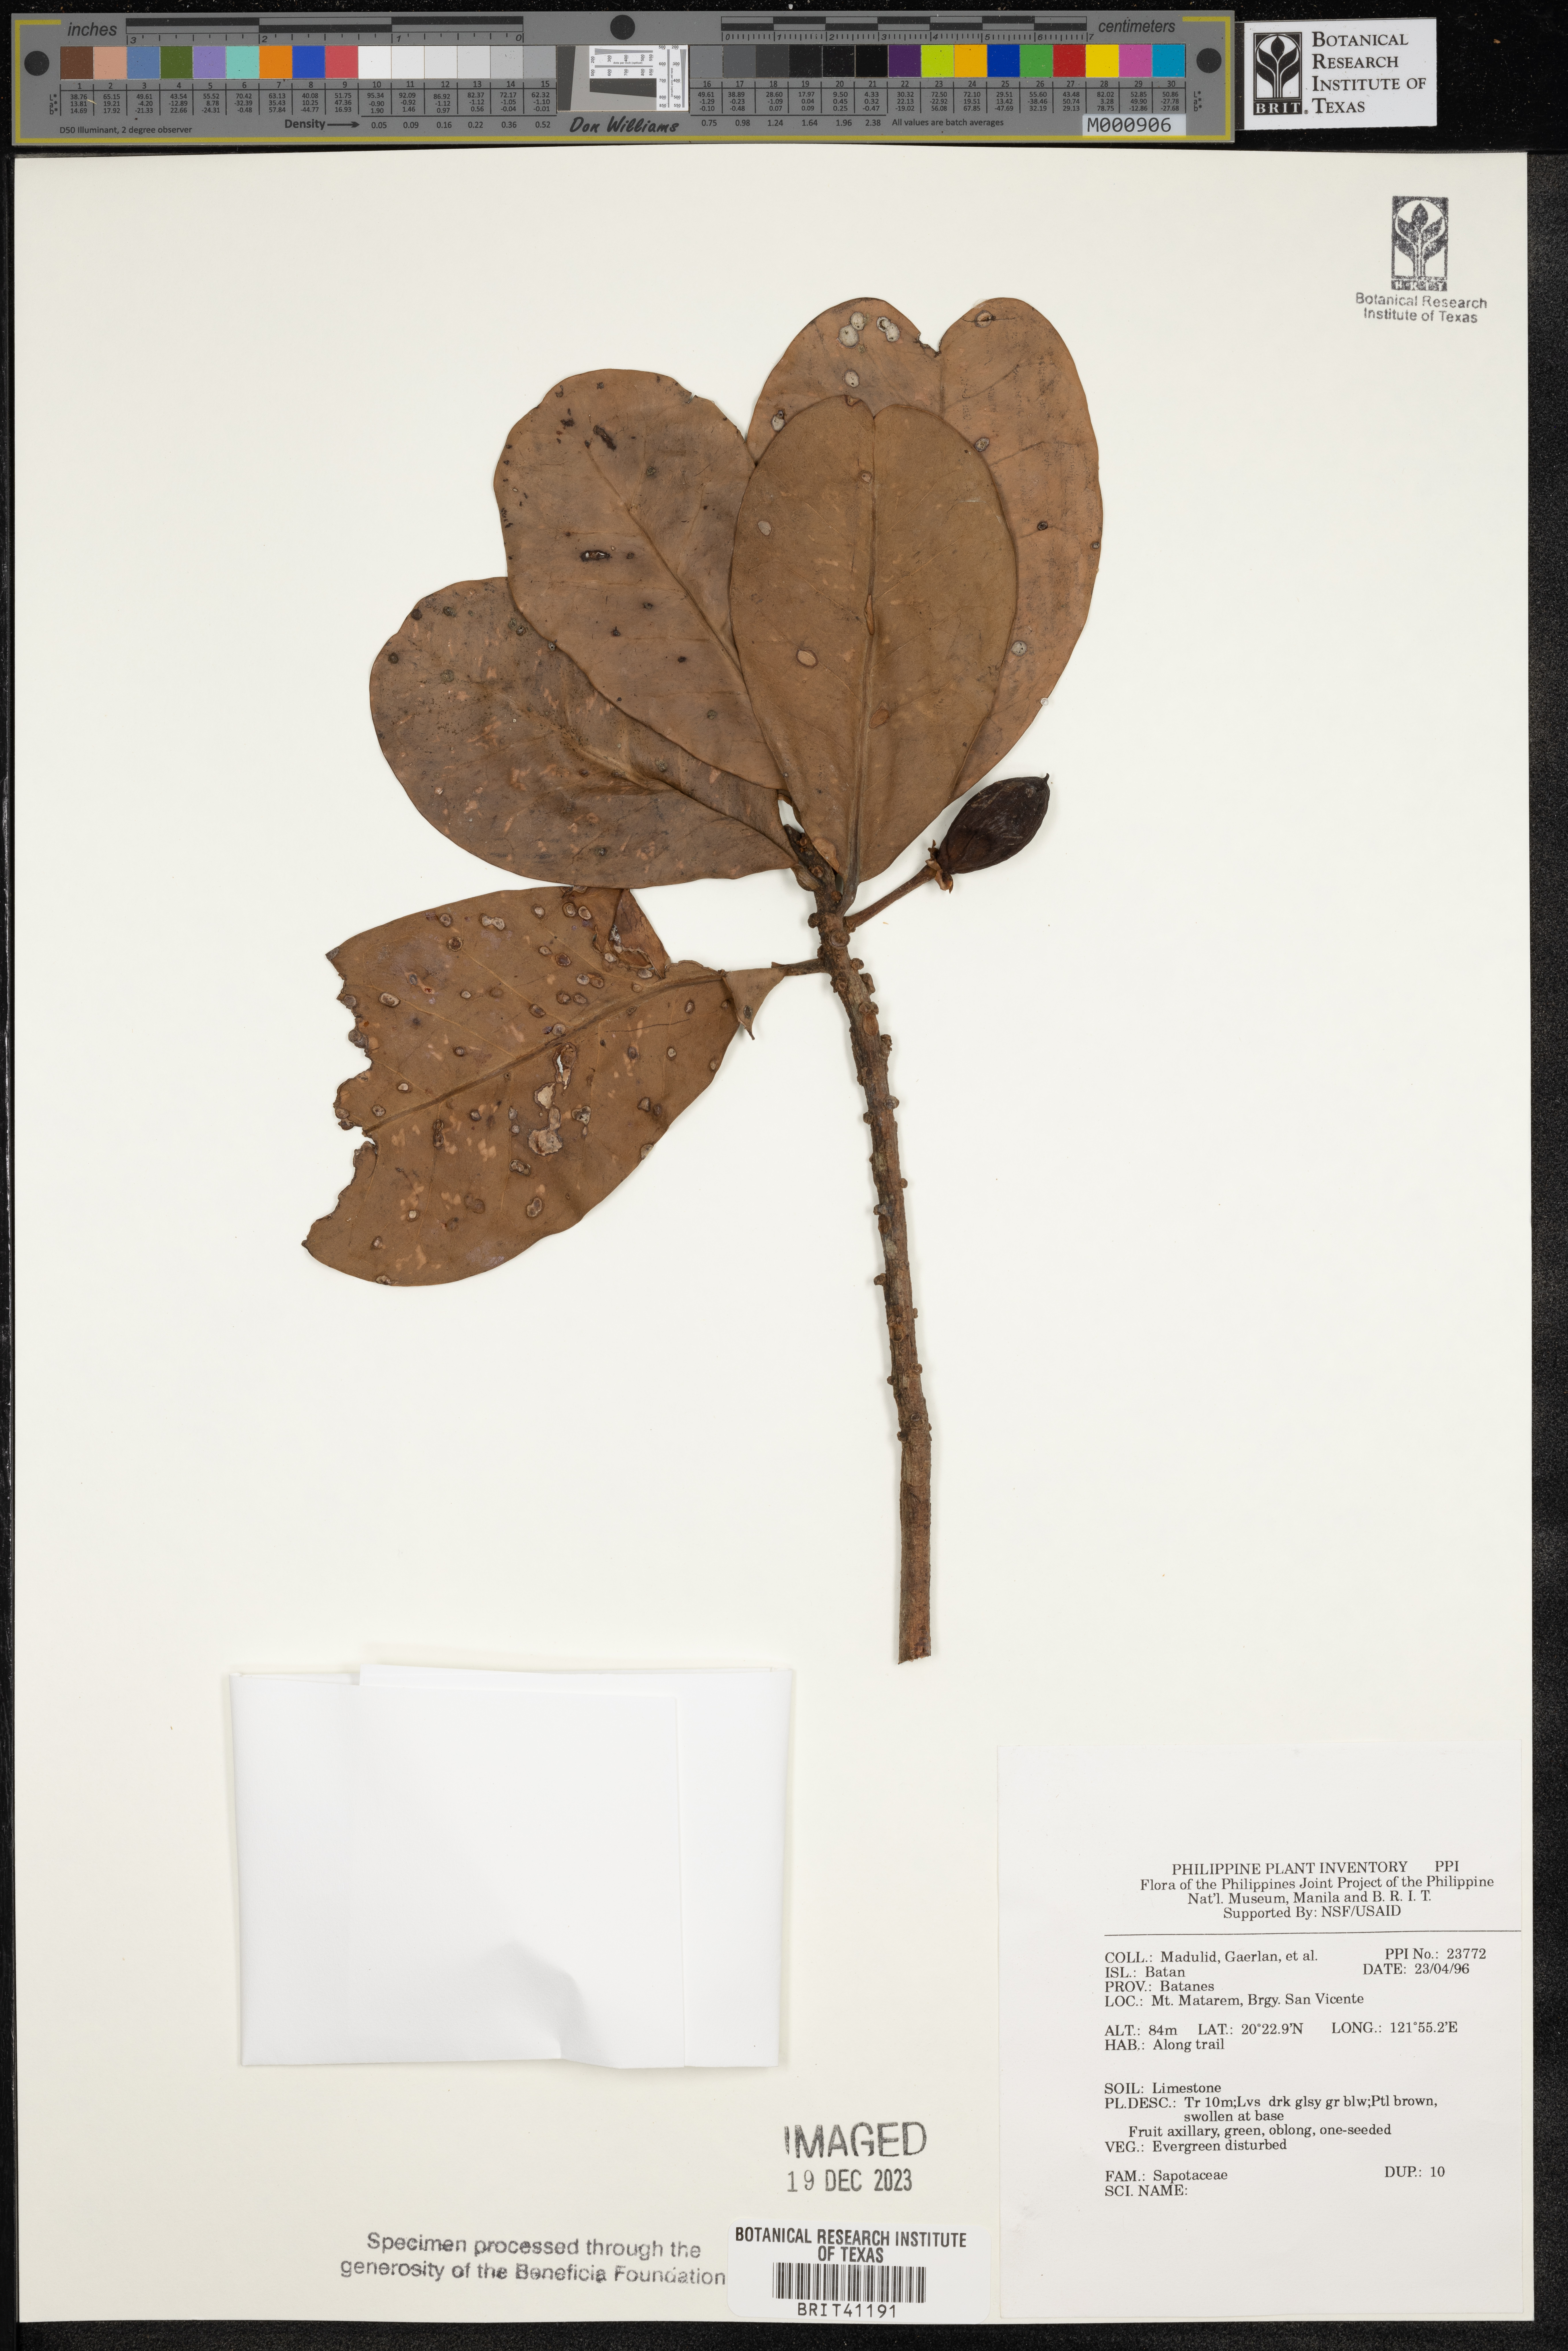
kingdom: Plantae
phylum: Tracheophyta
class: Magnoliopsida
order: Ericales
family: Sapotaceae
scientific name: Sapotaceae
